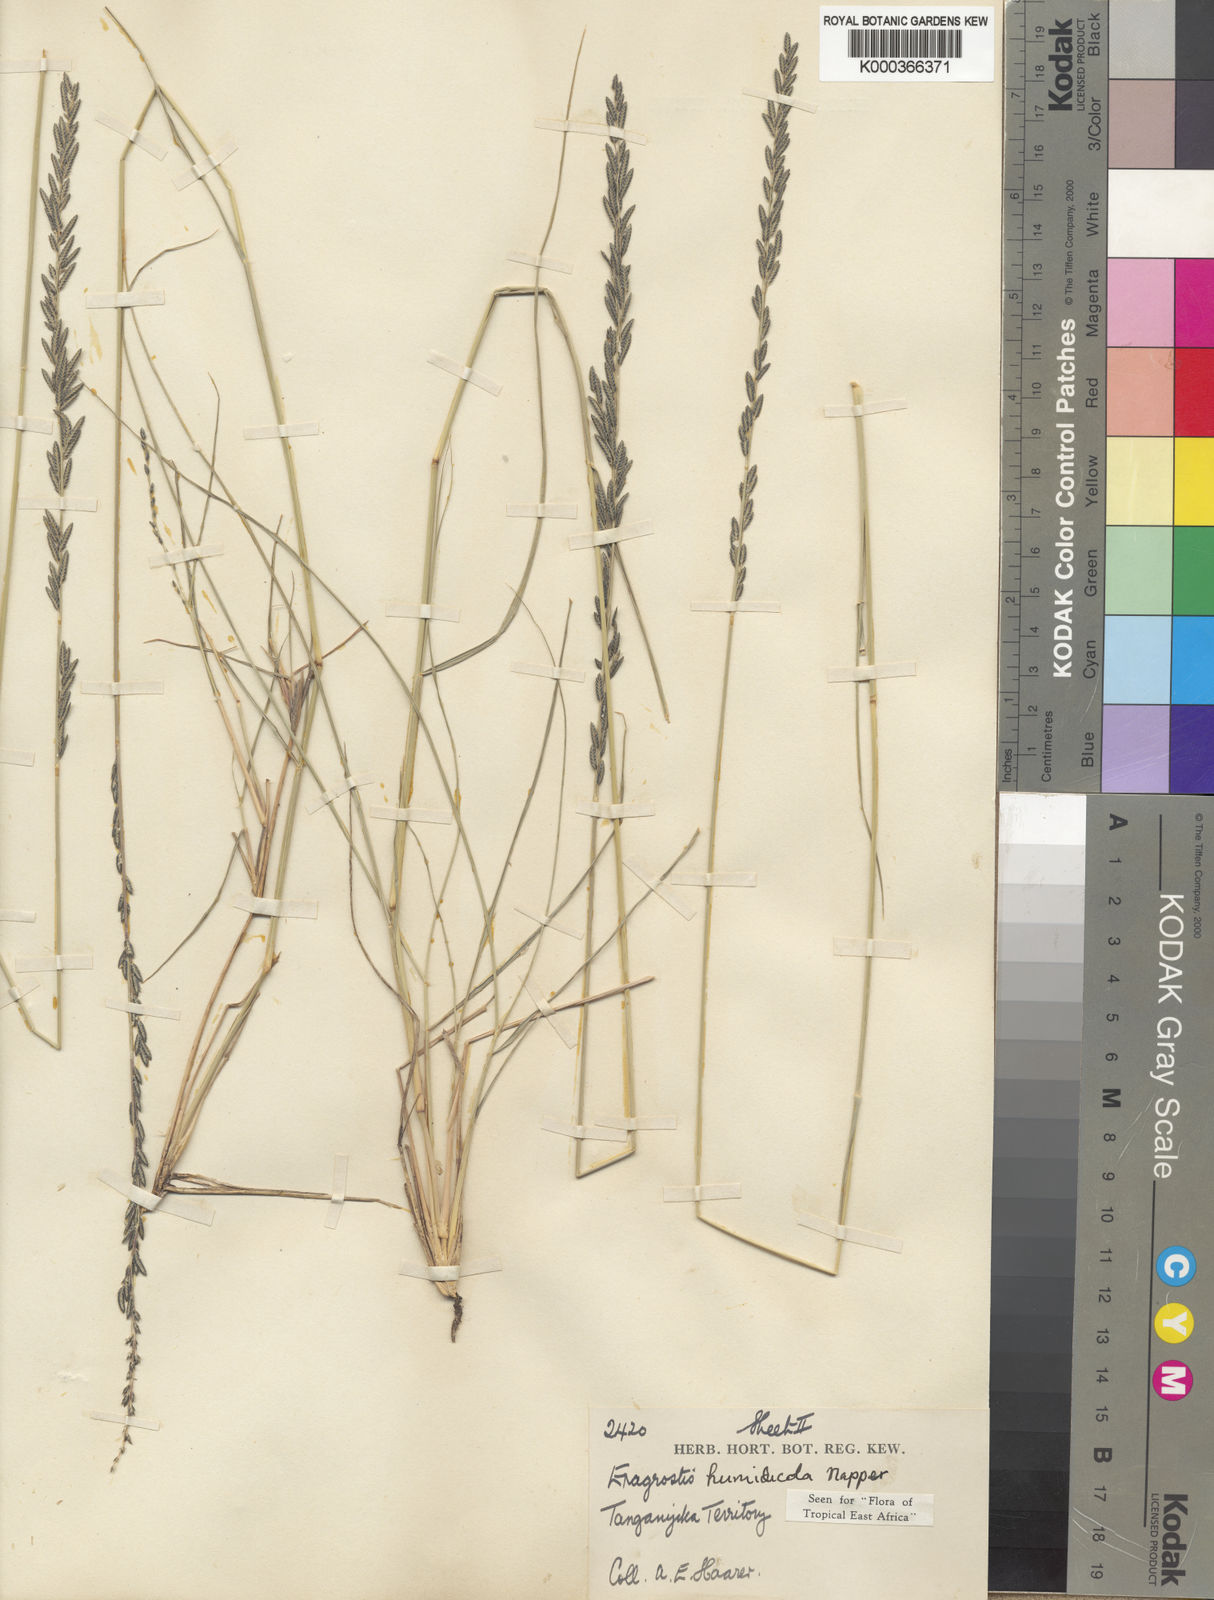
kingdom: Plantae
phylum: Tracheophyta
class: Liliopsida
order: Poales
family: Poaceae
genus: Eragrostis
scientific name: Eragrostis humidicola
